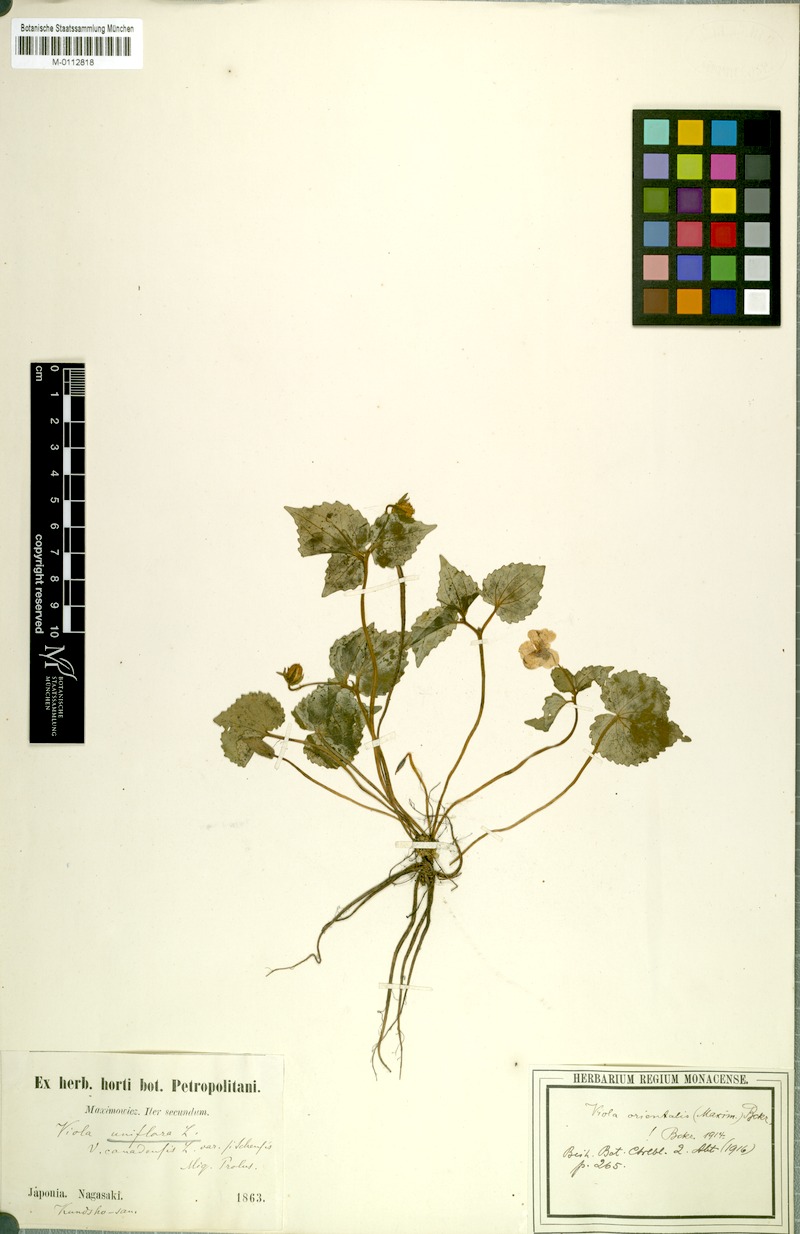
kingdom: Plantae
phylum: Tracheophyta
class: Magnoliopsida
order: Malpighiales
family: Violaceae
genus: Viola
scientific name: Viola orientalis
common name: Golden violet
